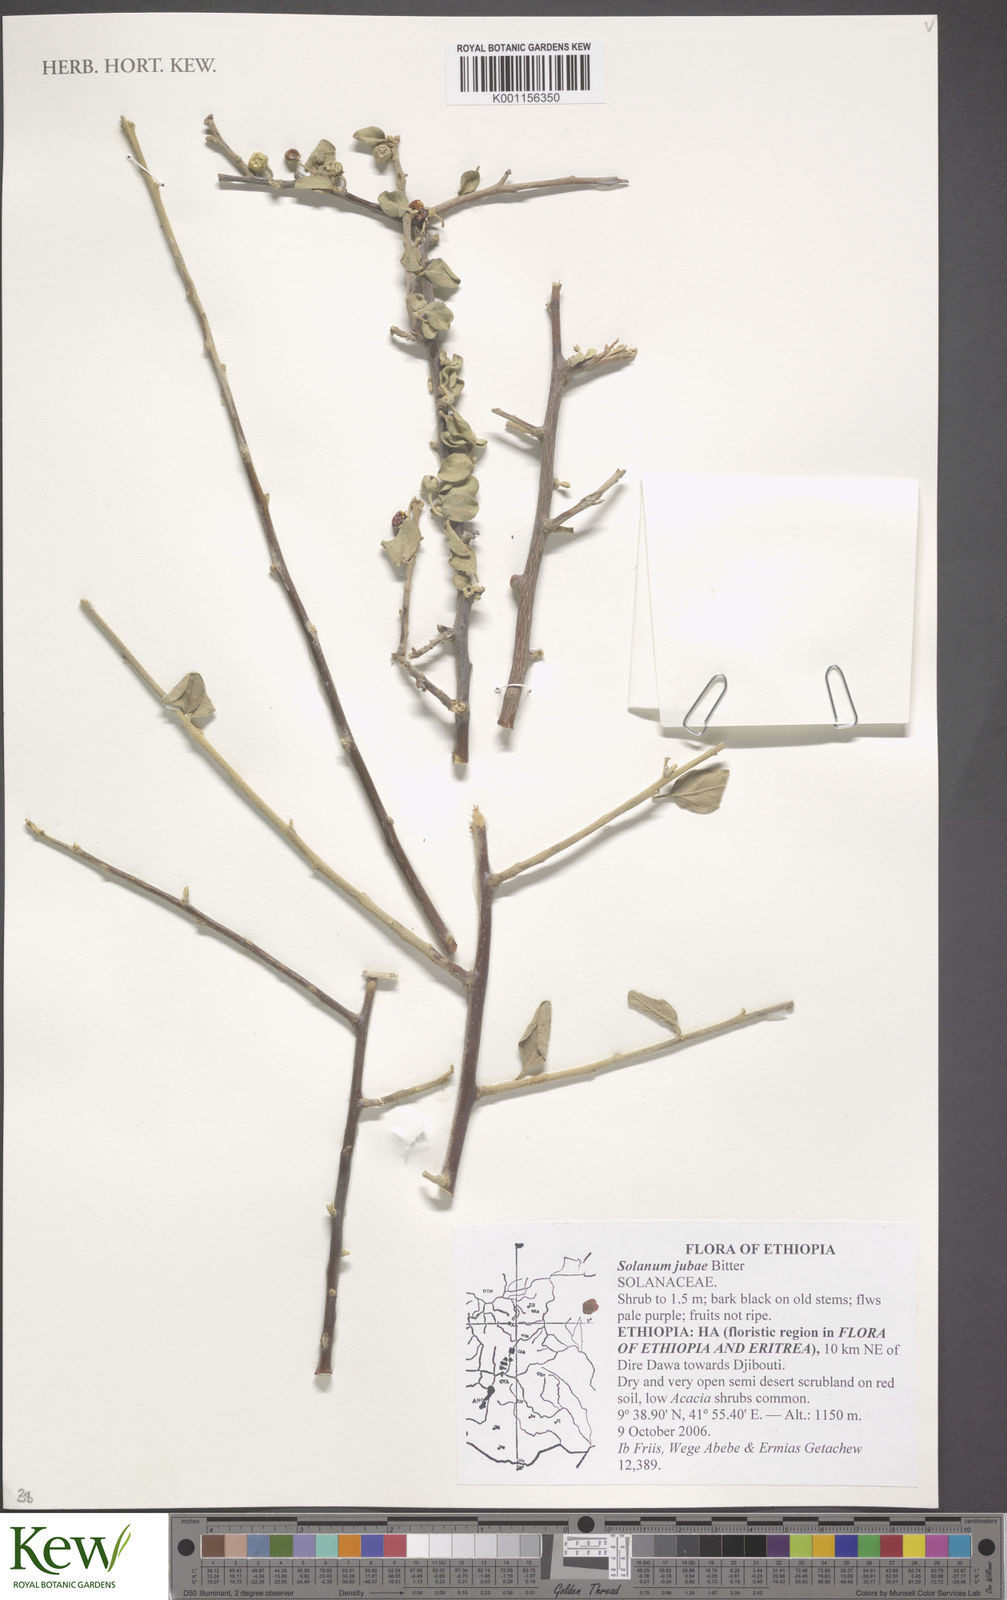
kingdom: Plantae
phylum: Tracheophyta
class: Magnoliopsida
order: Solanales
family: Solanaceae
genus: Solanum
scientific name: Solanum jubae
